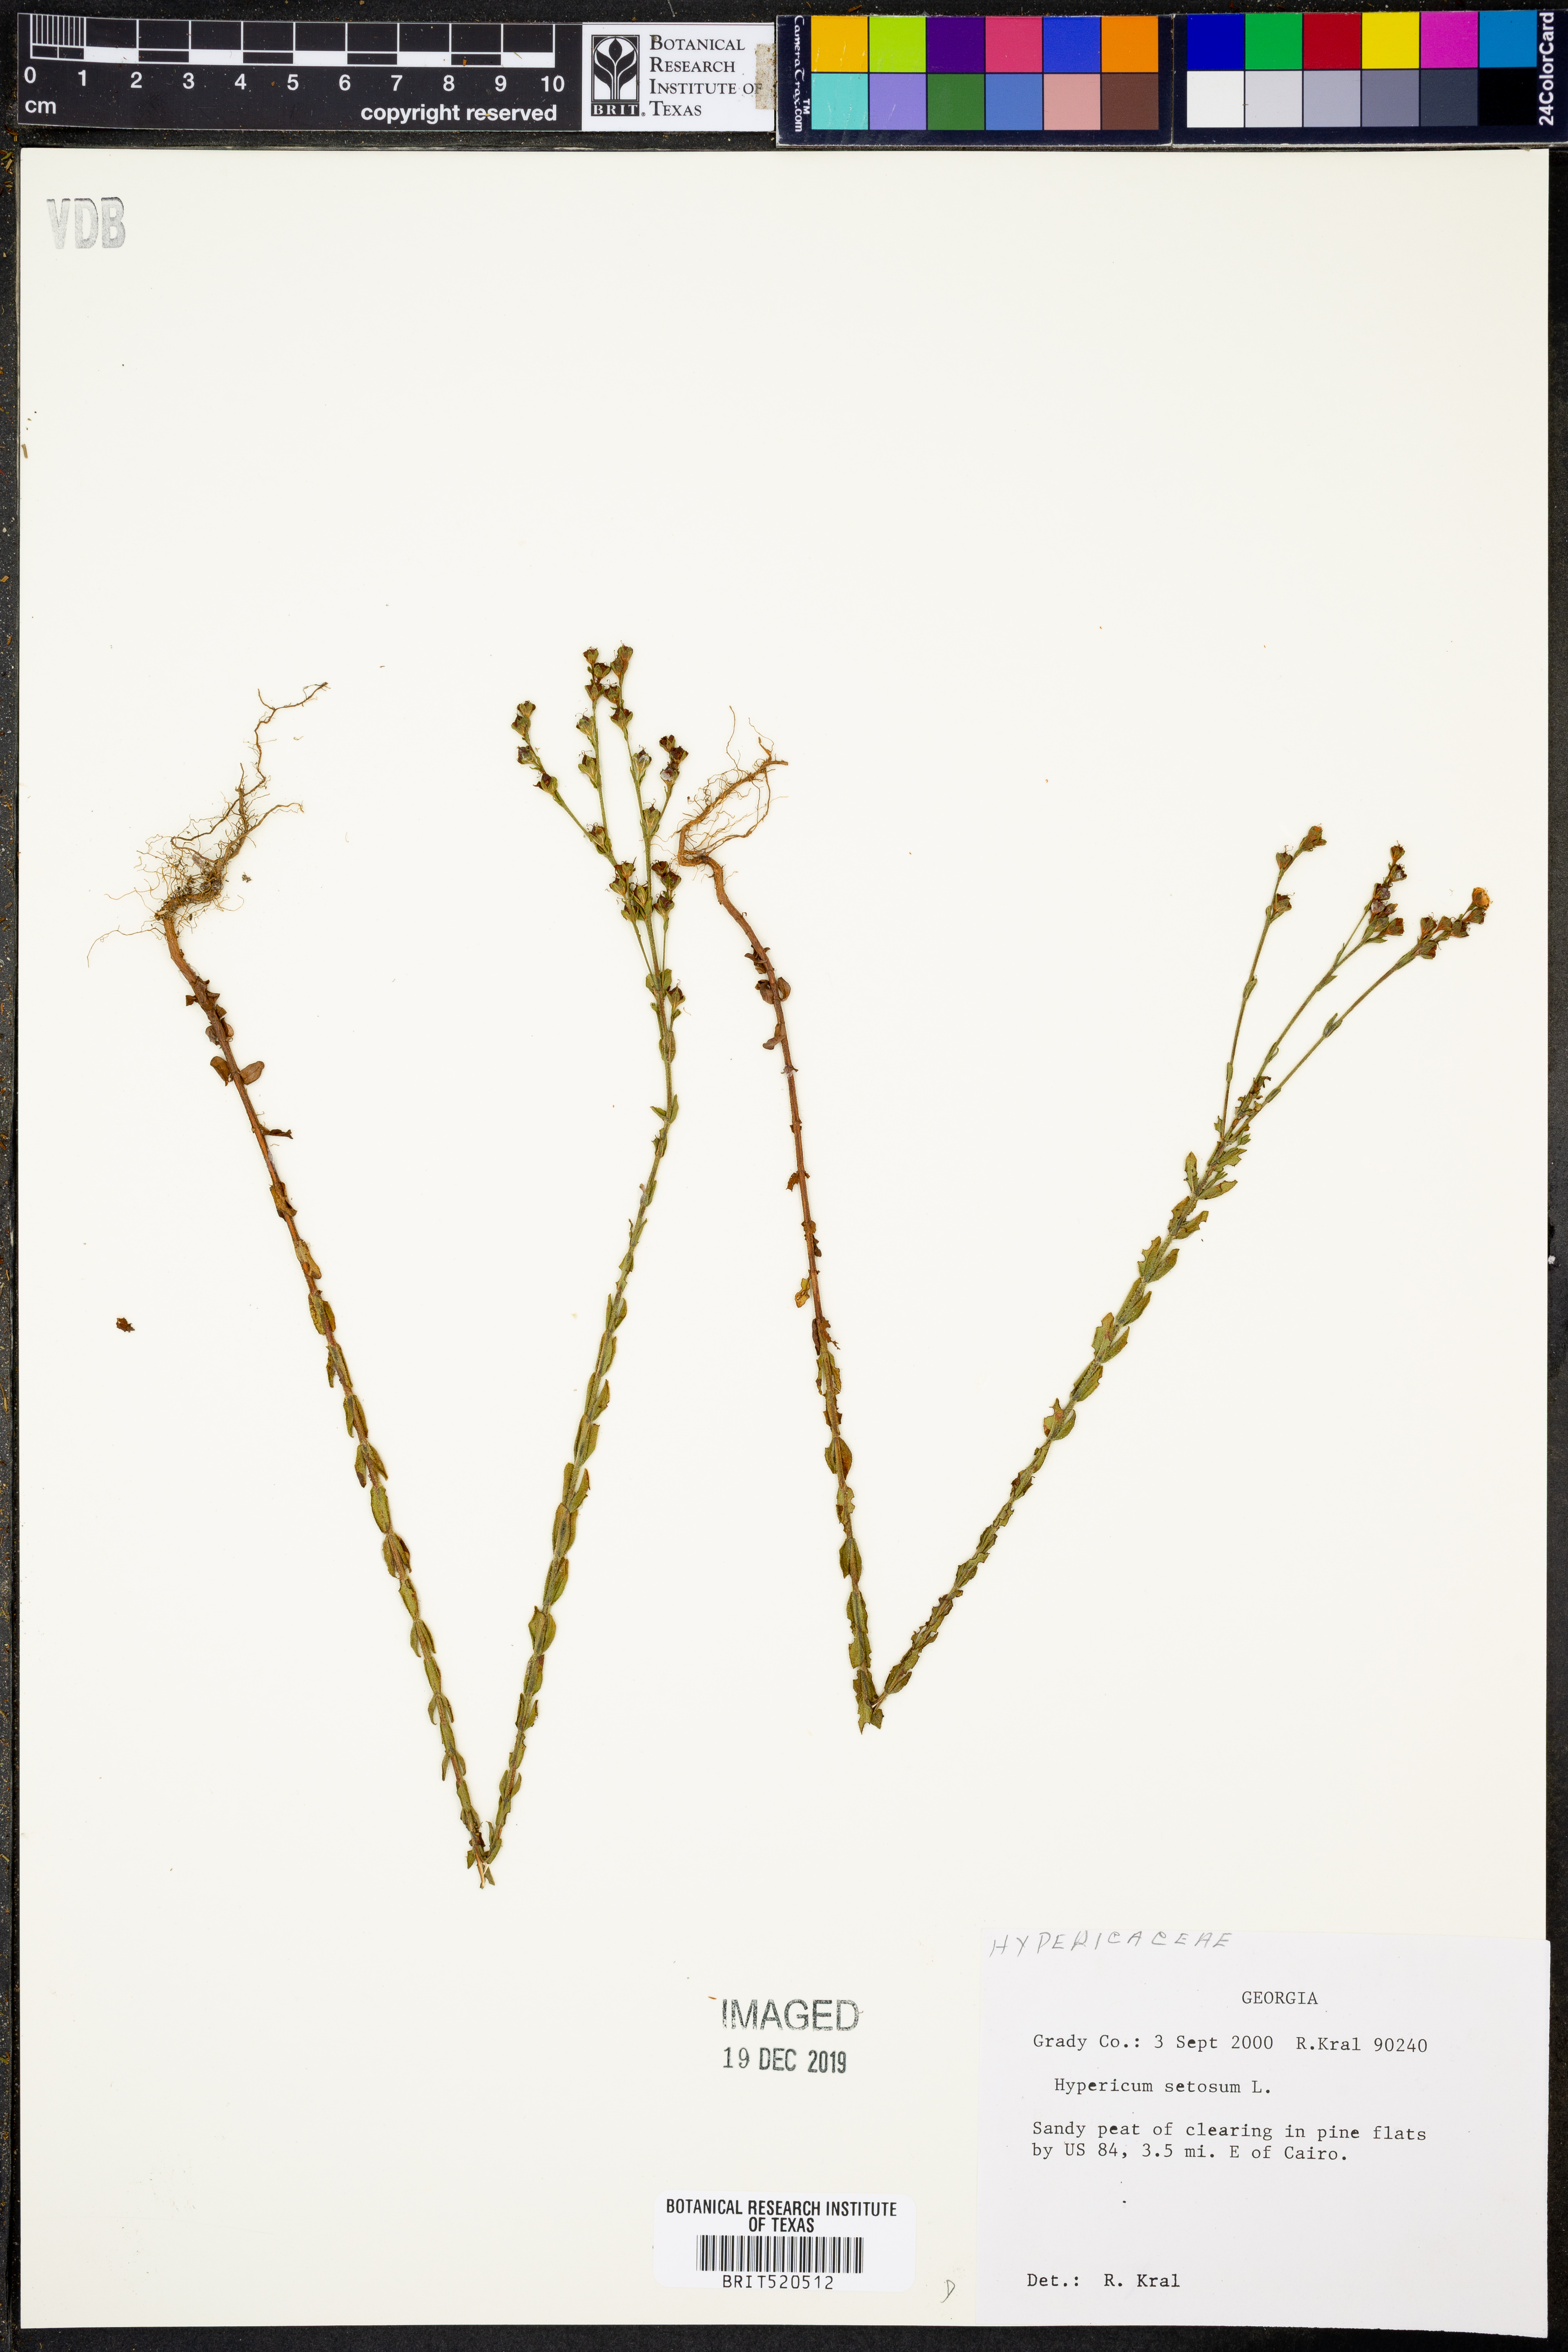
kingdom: Plantae
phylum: Tracheophyta
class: Magnoliopsida
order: Malpighiales
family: Hypericaceae
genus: Hypericum
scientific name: Hypericum setosum
